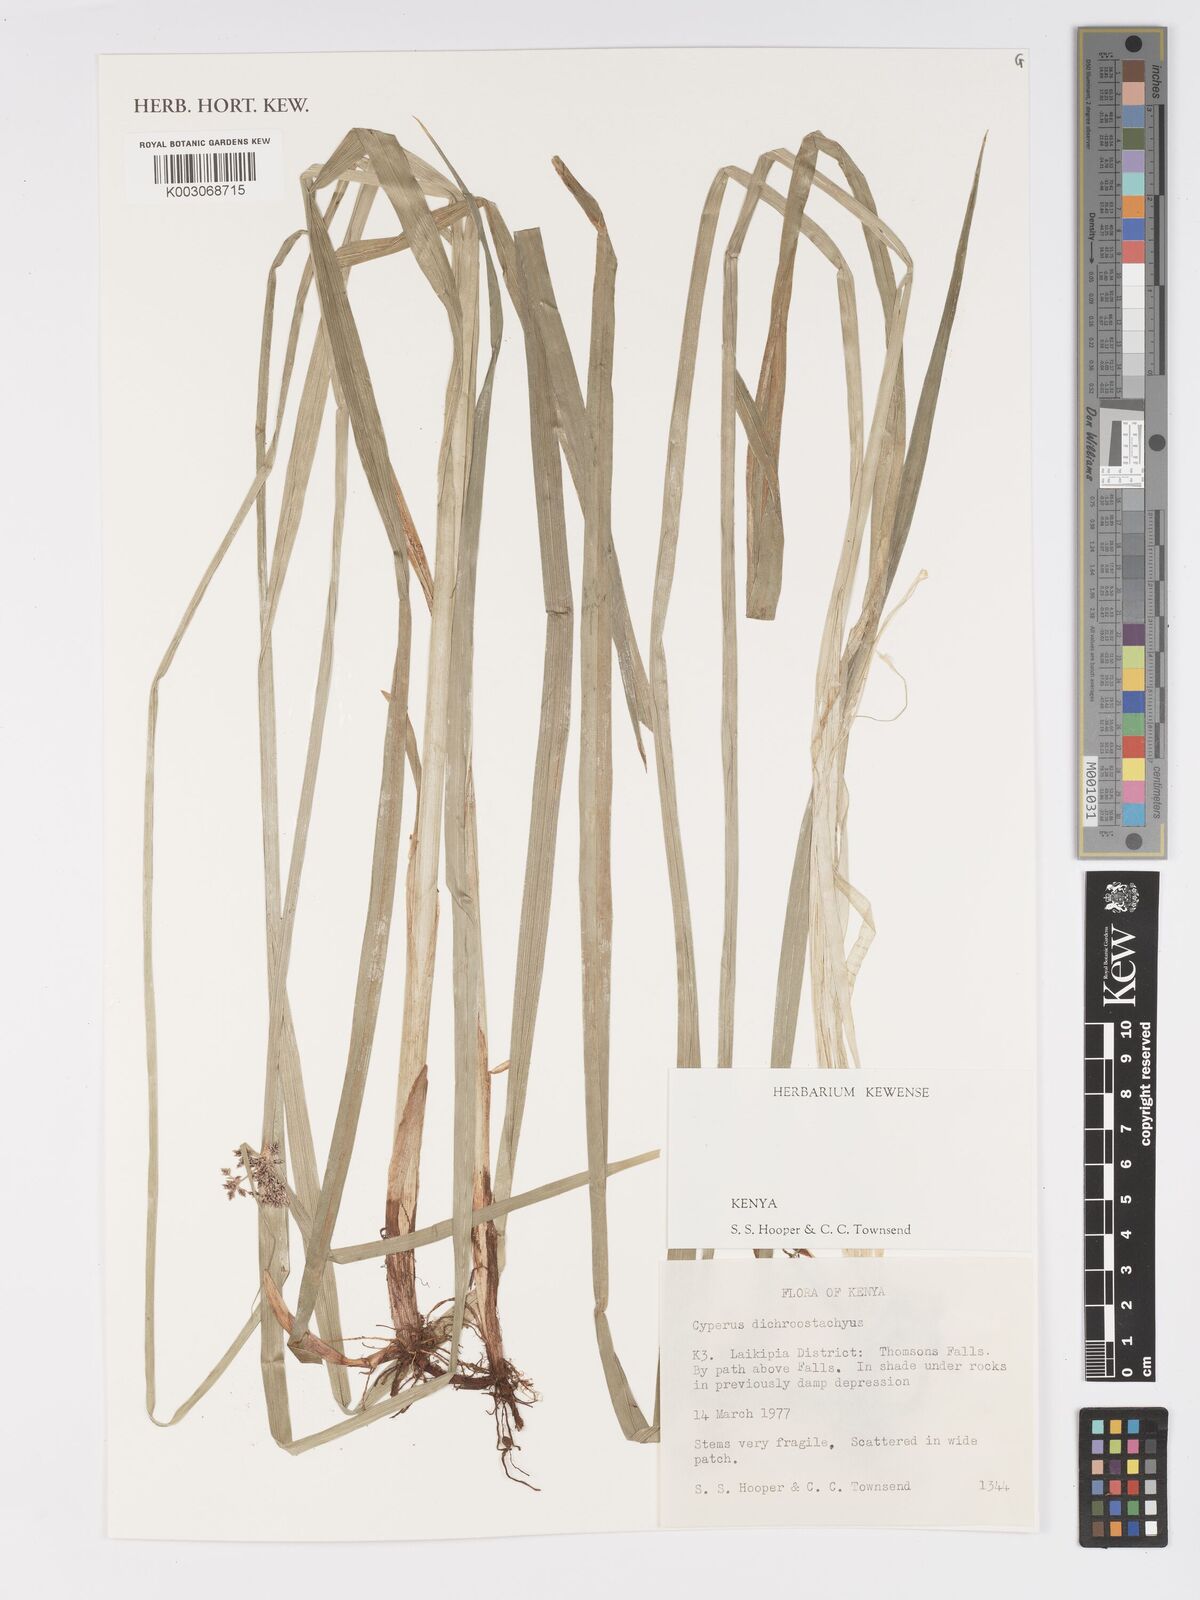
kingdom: Plantae
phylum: Tracheophyta
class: Liliopsida
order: Poales
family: Cyperaceae
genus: Cyperus
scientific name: Cyperus dichrostachyus
